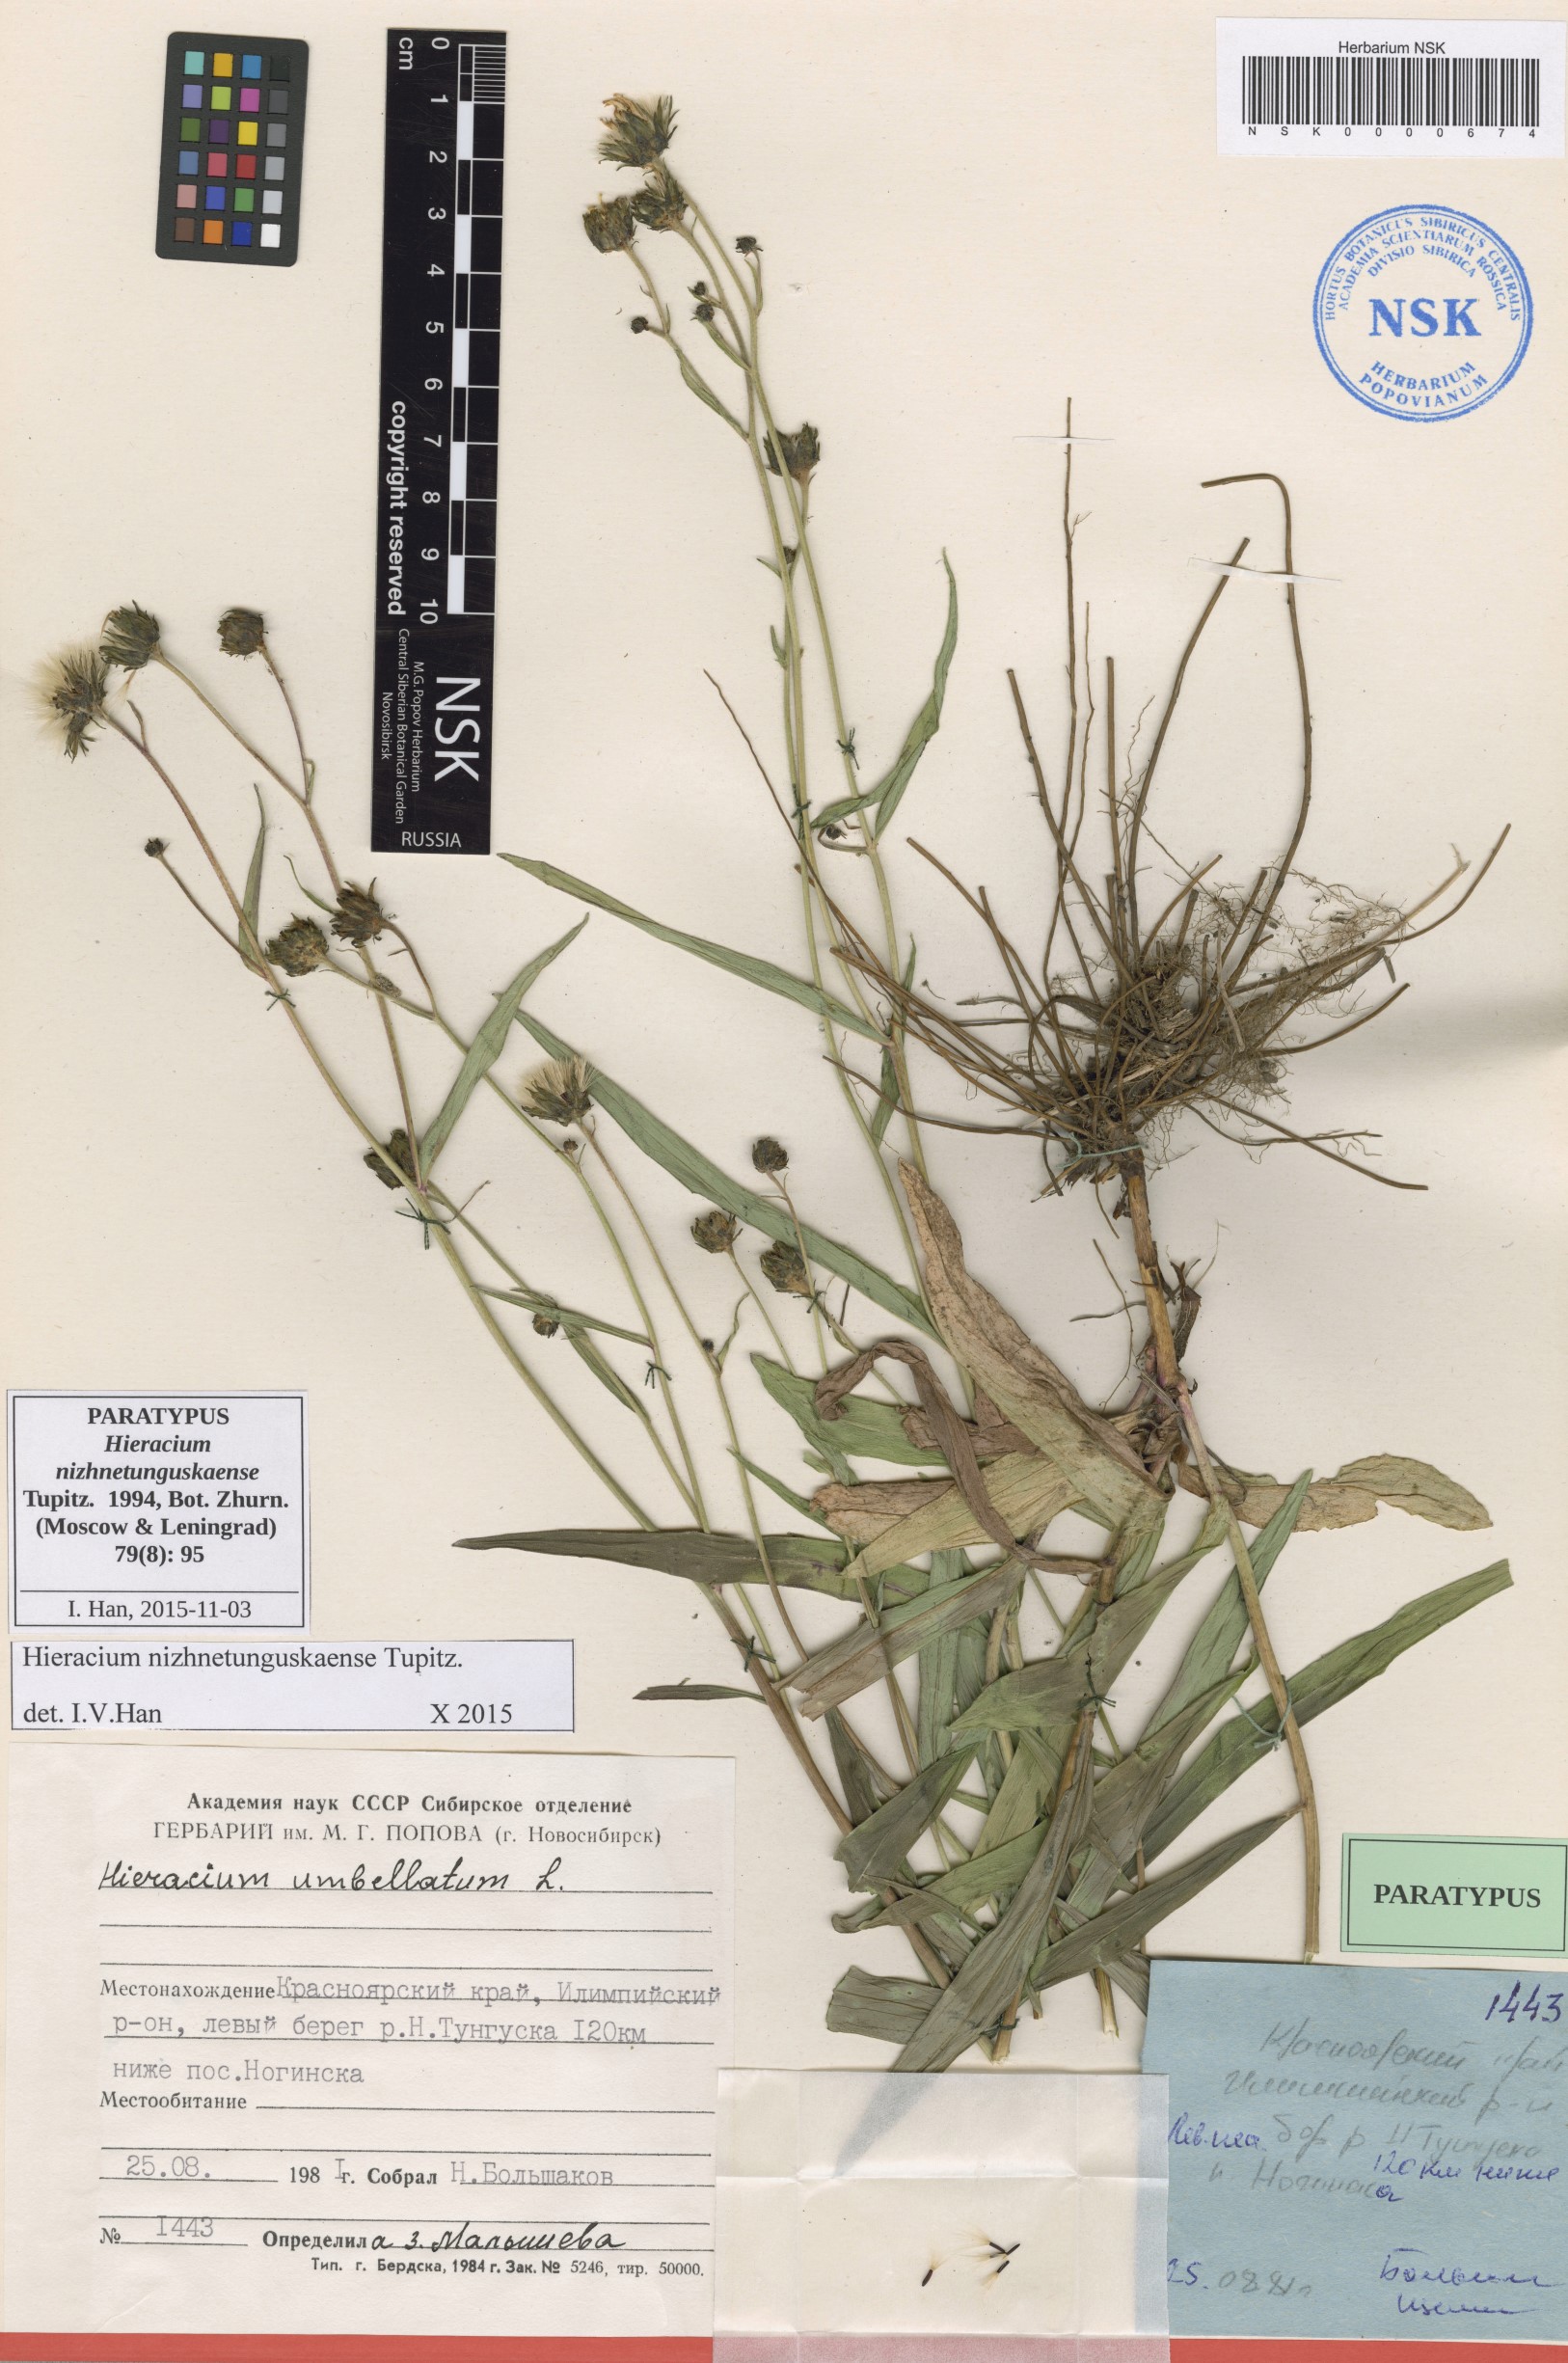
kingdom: Plantae
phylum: Tracheophyta
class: Magnoliopsida
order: Asterales
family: Asteraceae
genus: Hieracium
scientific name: Hieracium nizhnetunguskaense
